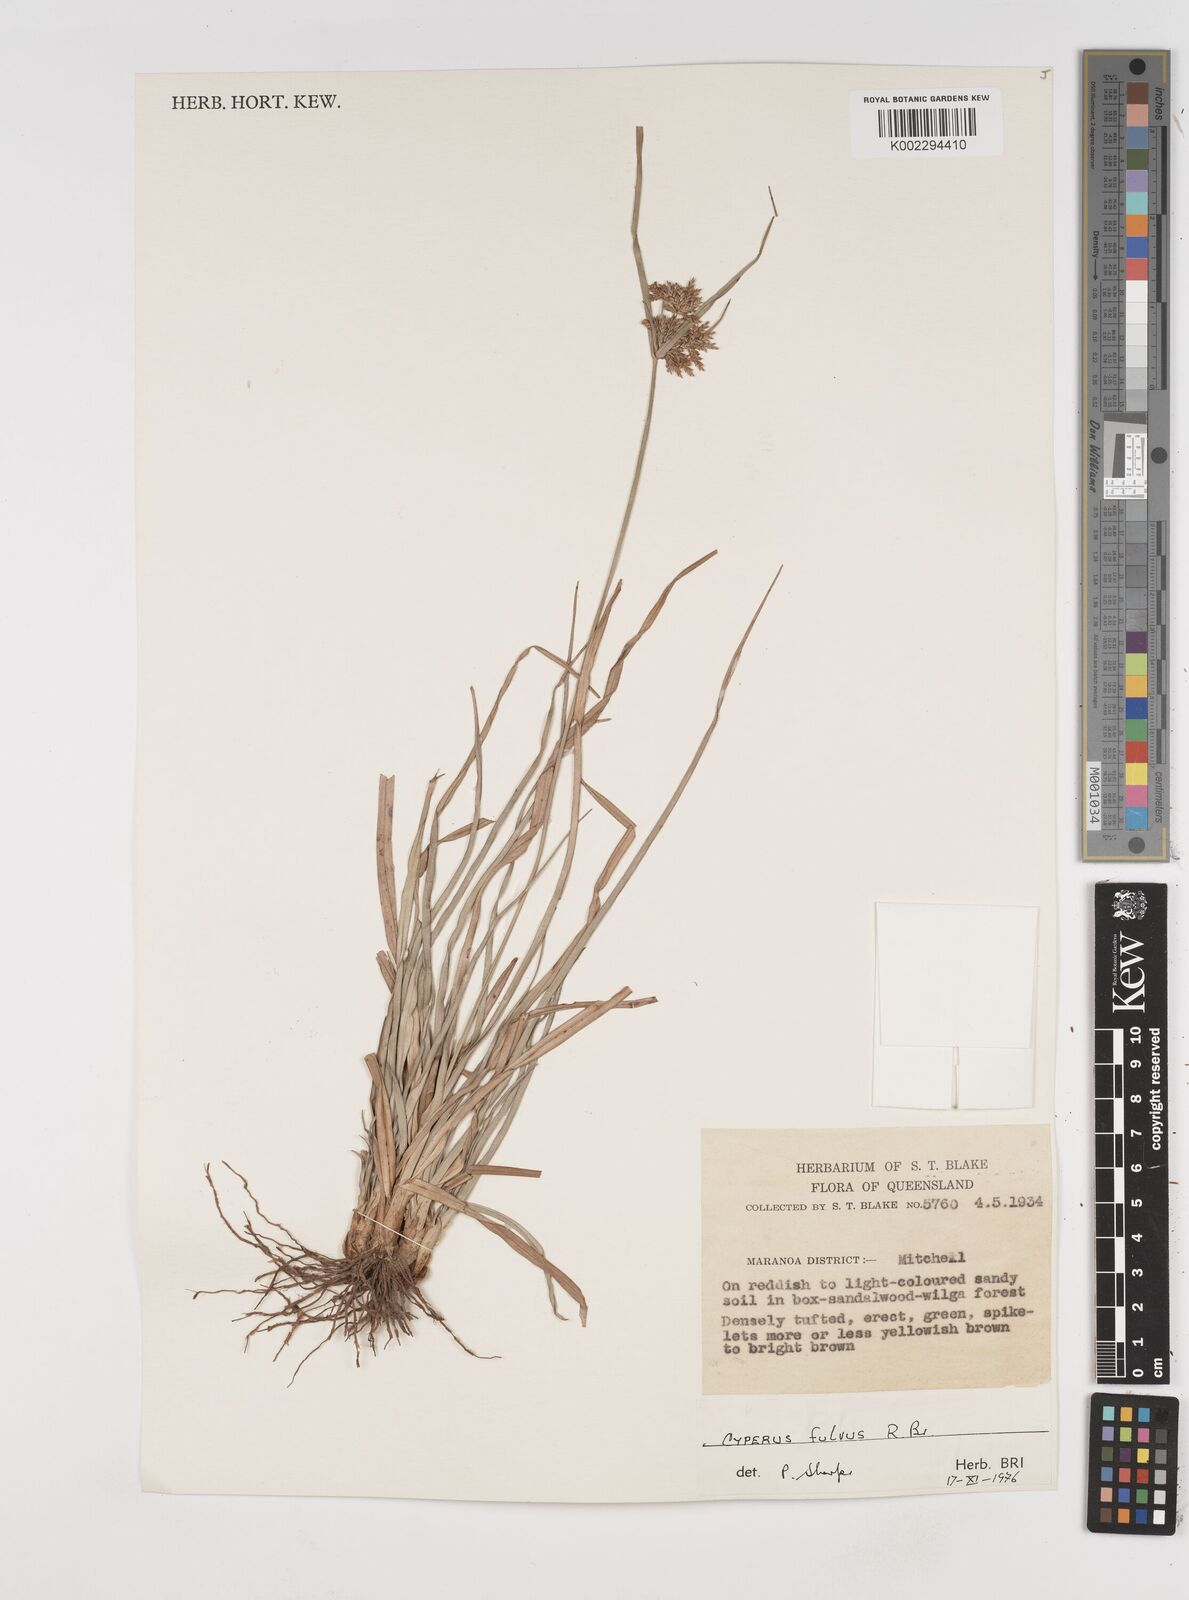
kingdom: Plantae
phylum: Tracheophyta
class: Liliopsida
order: Poales
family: Cyperaceae
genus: Cyperus
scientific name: Cyperus fulvus
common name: Sticky sedge
